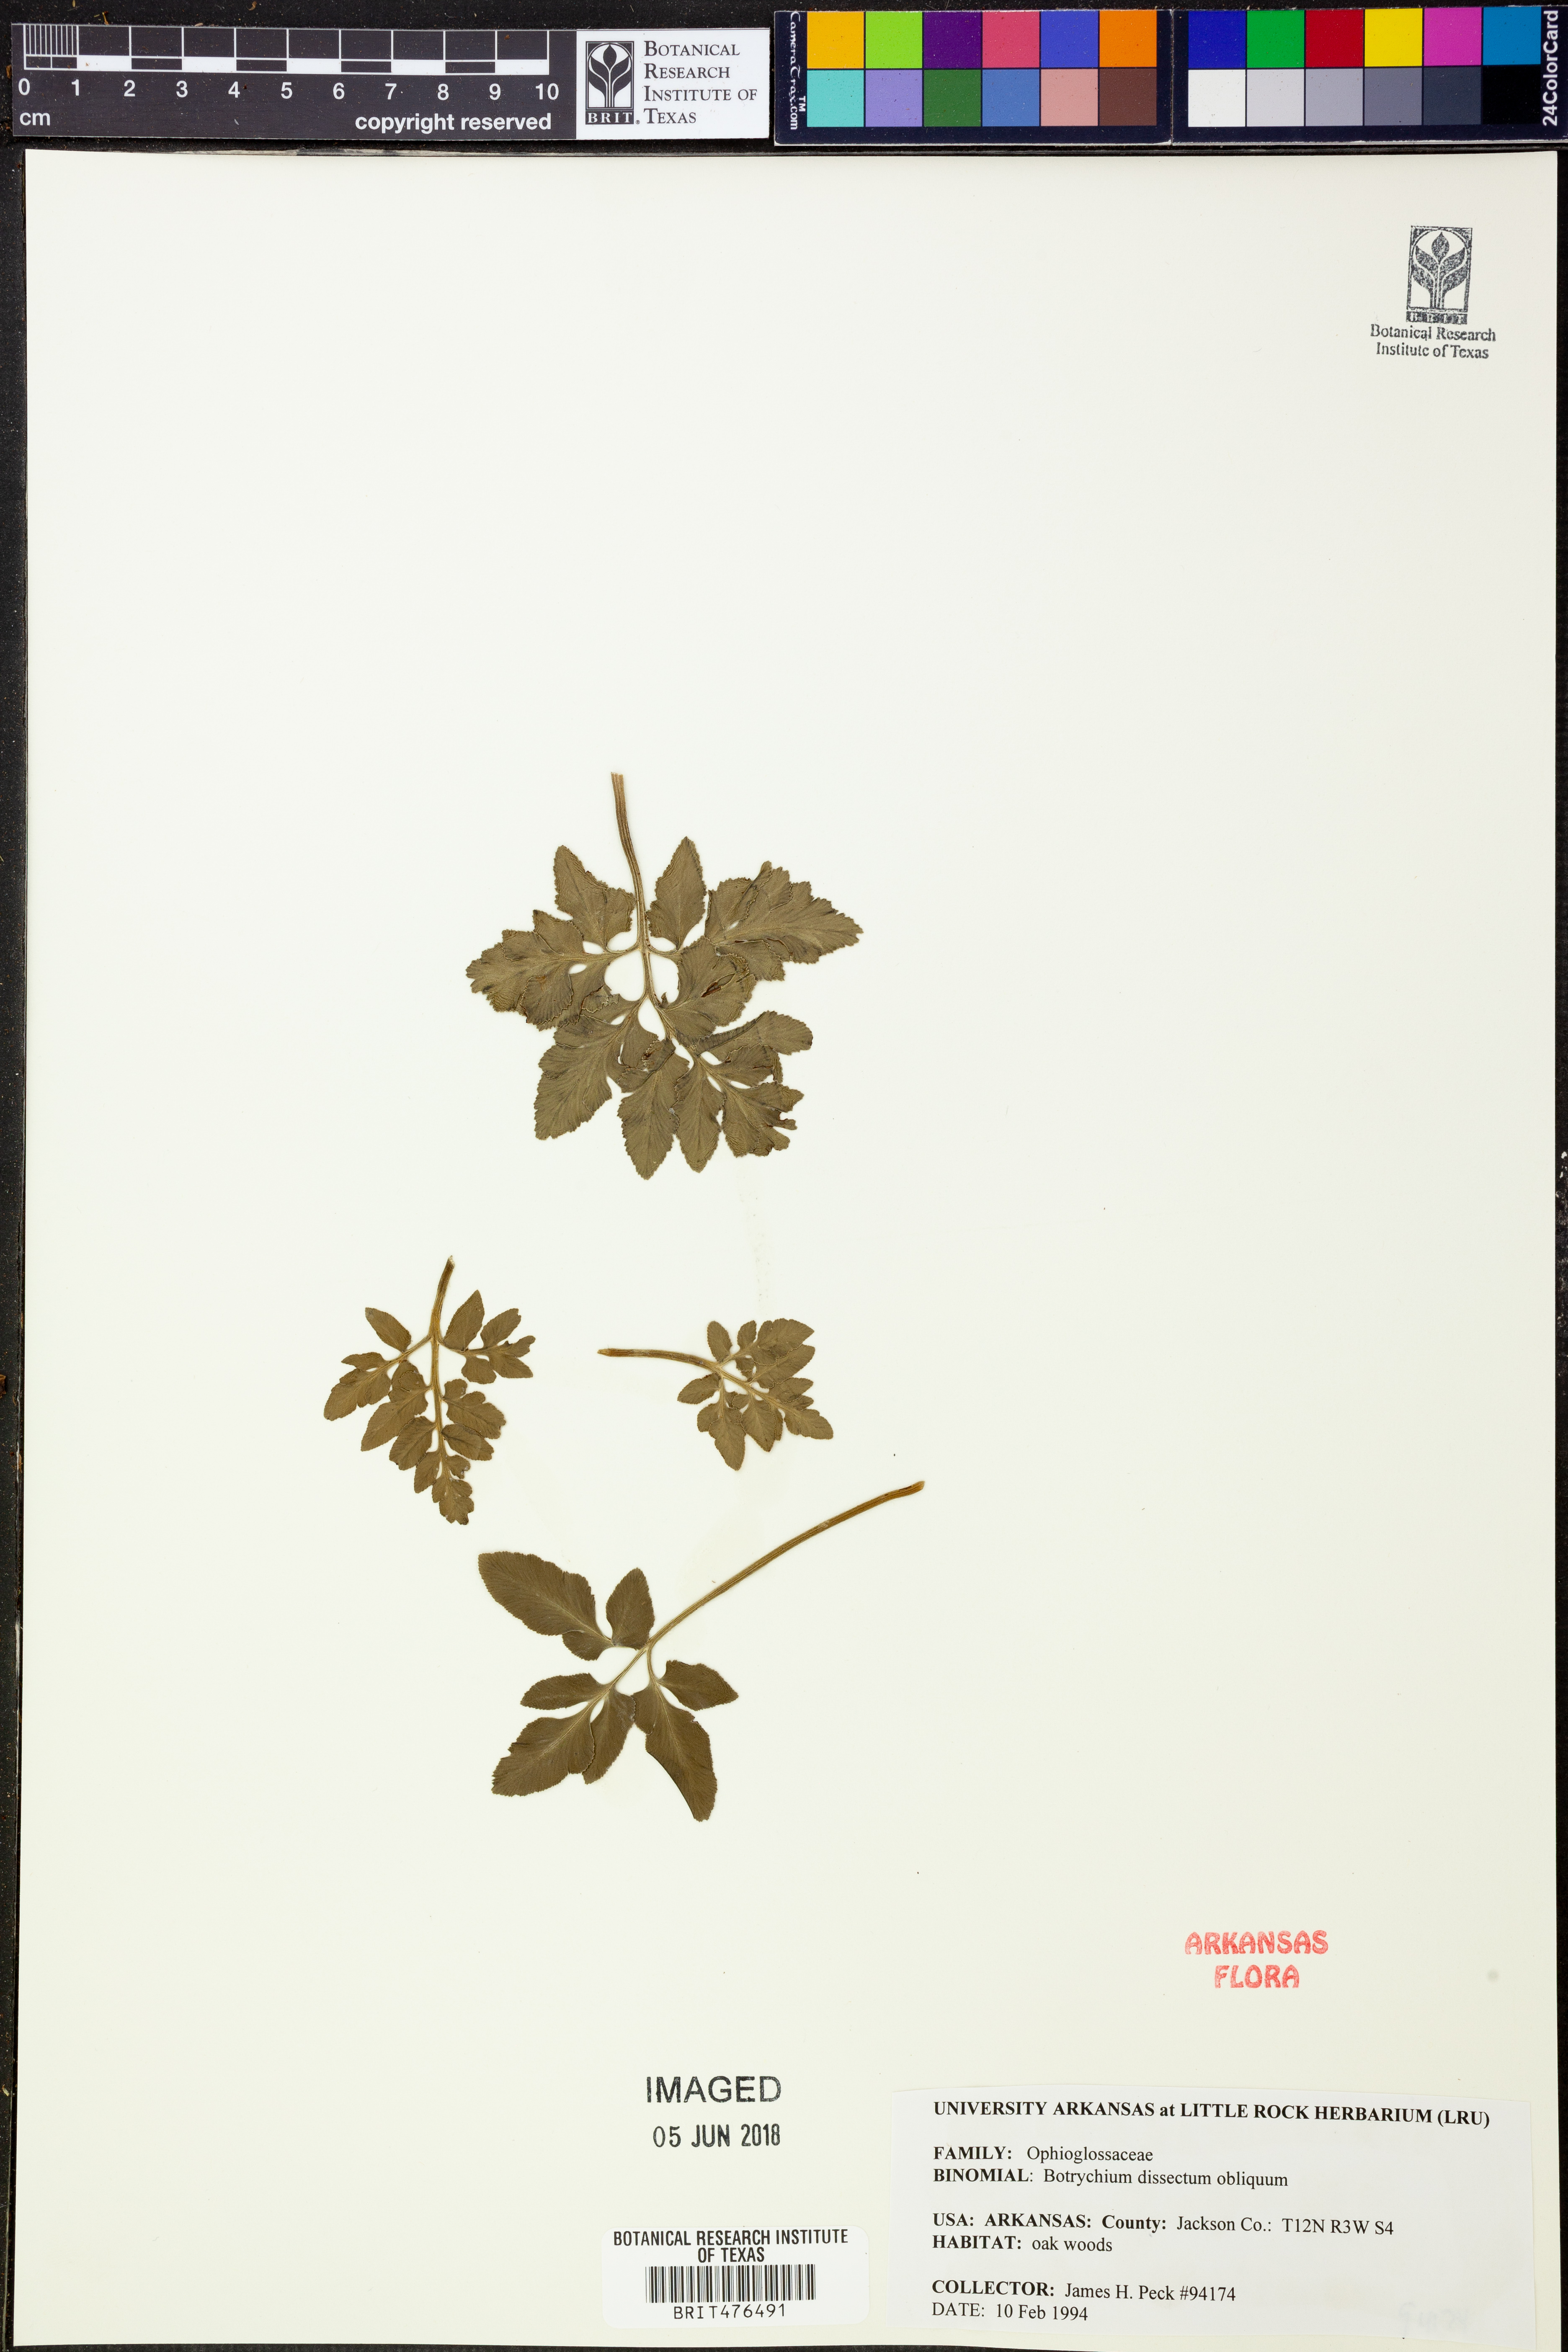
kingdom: Plantae
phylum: Tracheophyta
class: Polypodiopsida
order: Ophioglossales
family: Ophioglossaceae
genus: Sceptridium
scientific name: Sceptridium dissectum
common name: Cut-leaved grapefern
